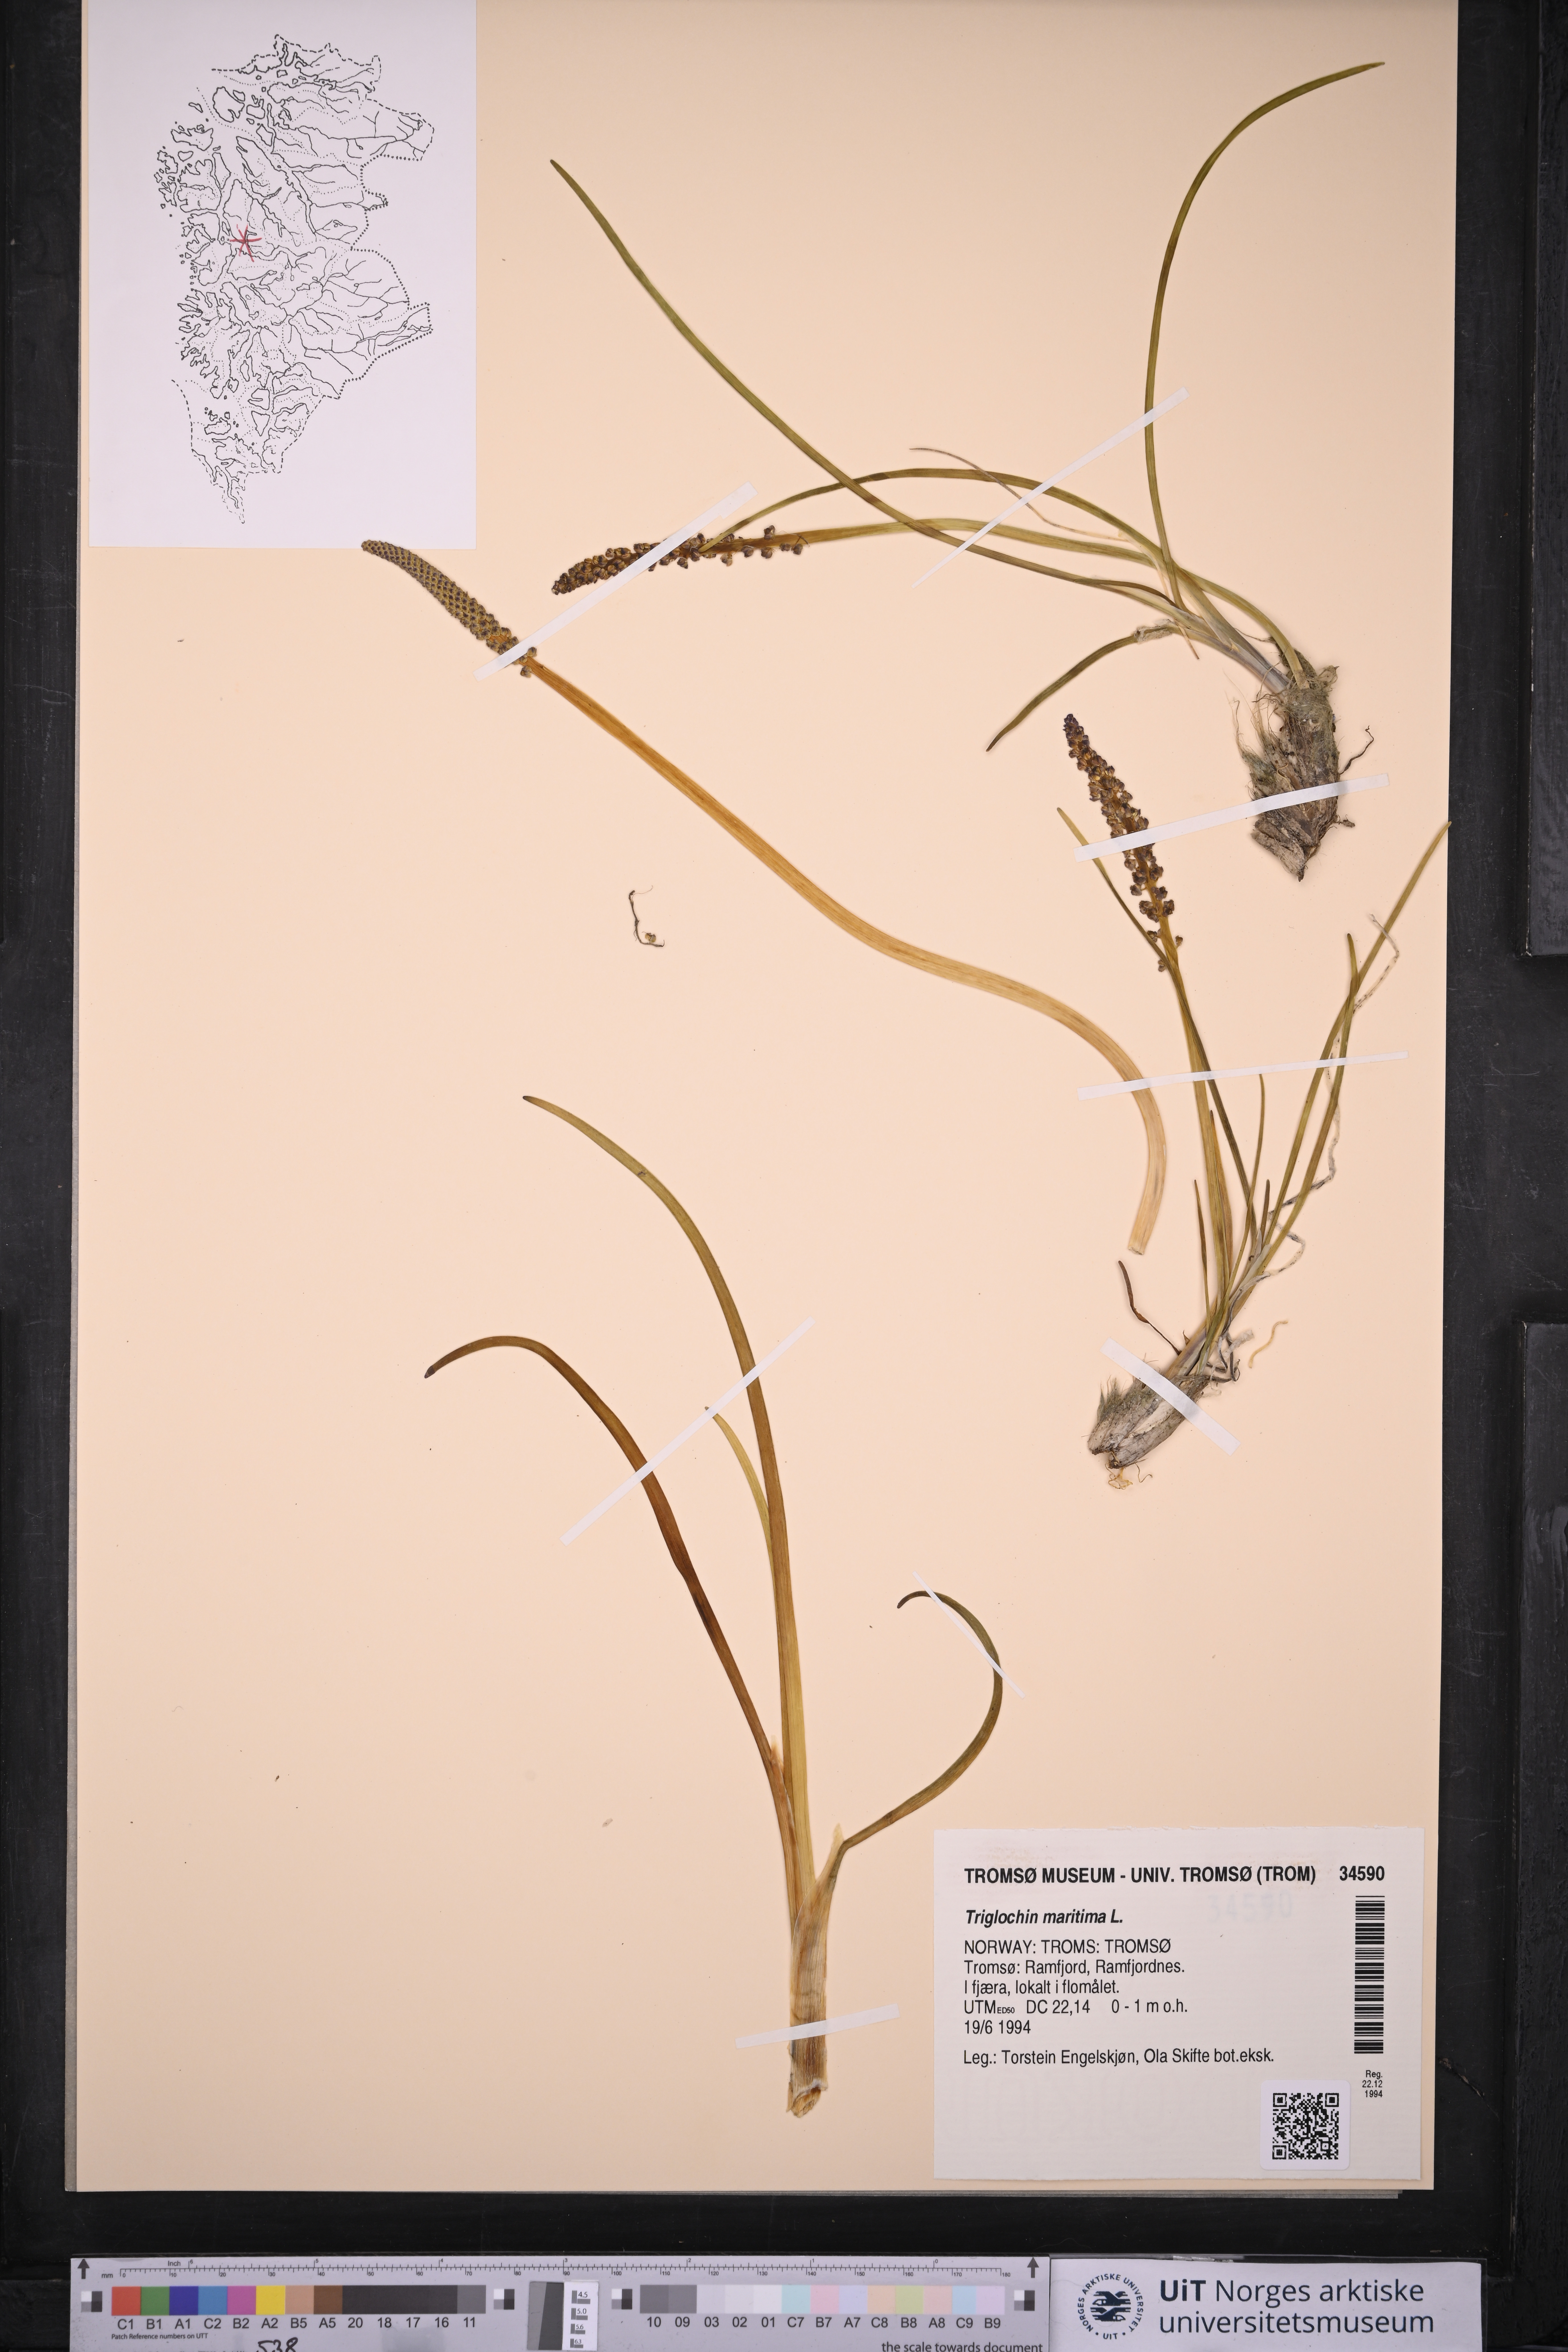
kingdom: Plantae
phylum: Tracheophyta
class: Liliopsida
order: Alismatales
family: Juncaginaceae
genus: Triglochin
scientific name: Triglochin maritima
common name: Sea arrowgrass
